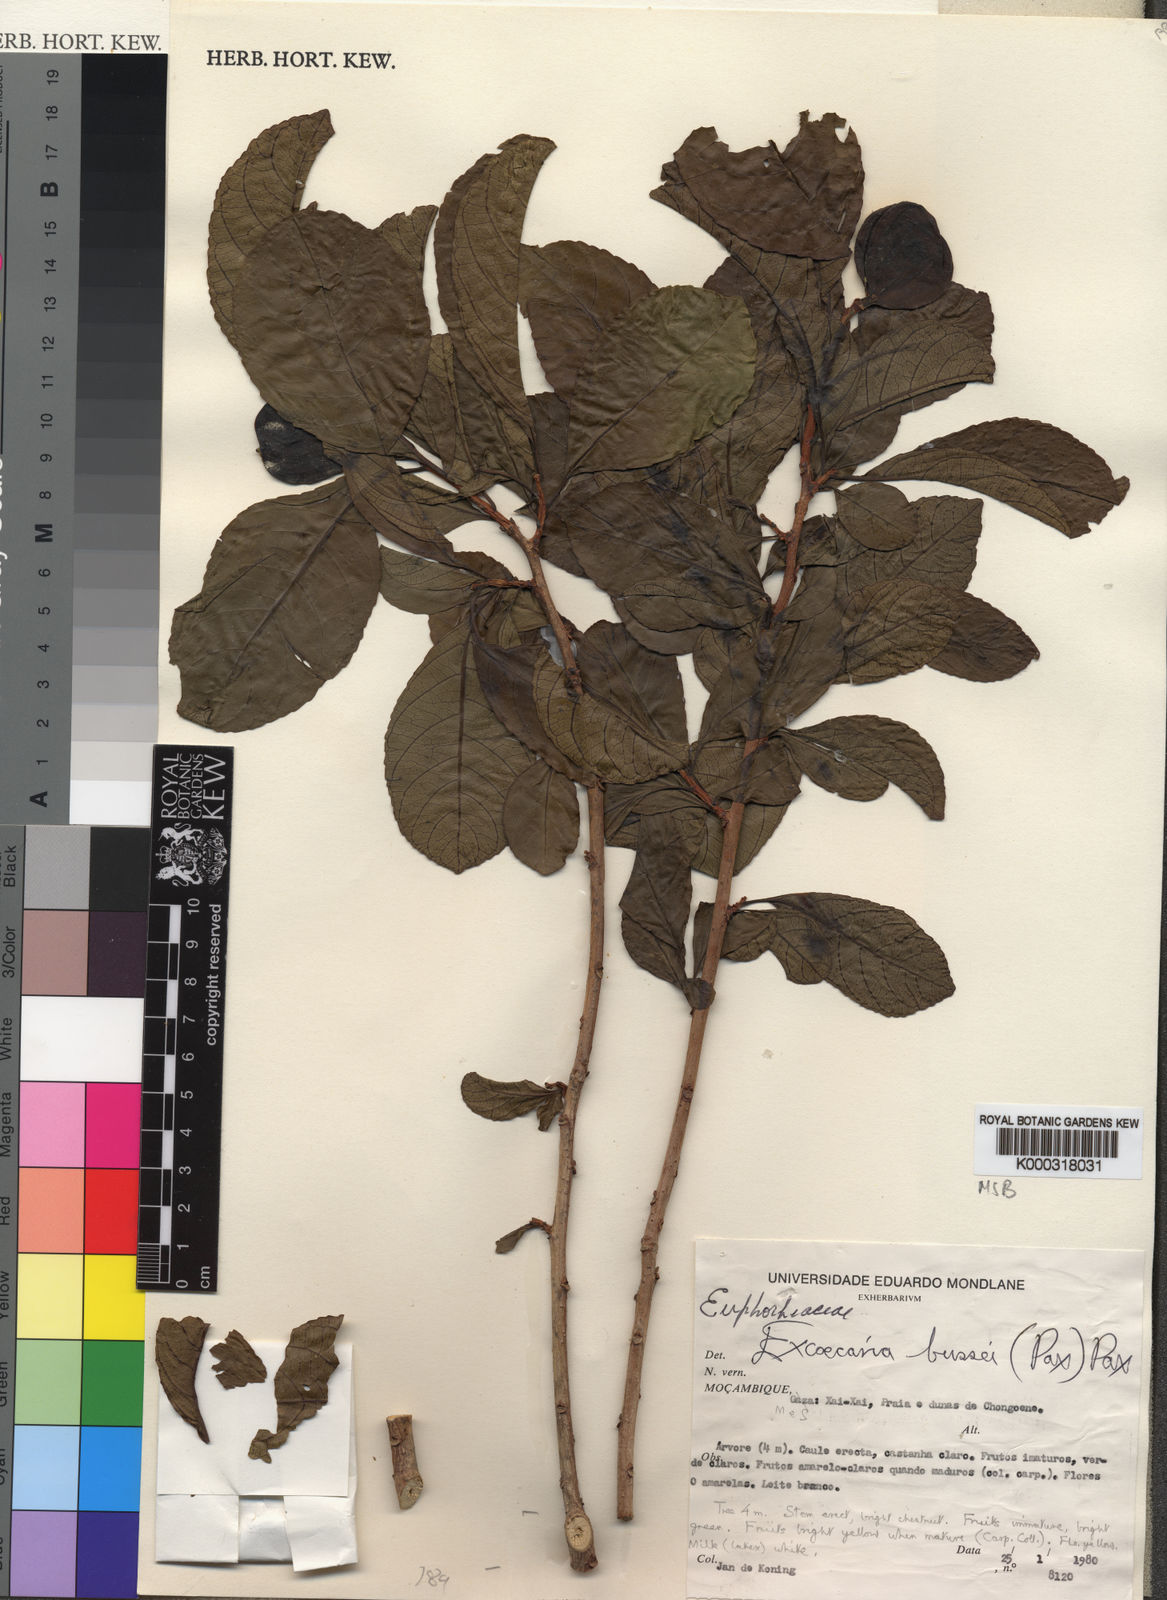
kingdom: Plantae
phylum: Tracheophyta
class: Magnoliopsida
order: Malpighiales
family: Euphorbiaceae
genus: Excoecaria
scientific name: Excoecaria bussei
